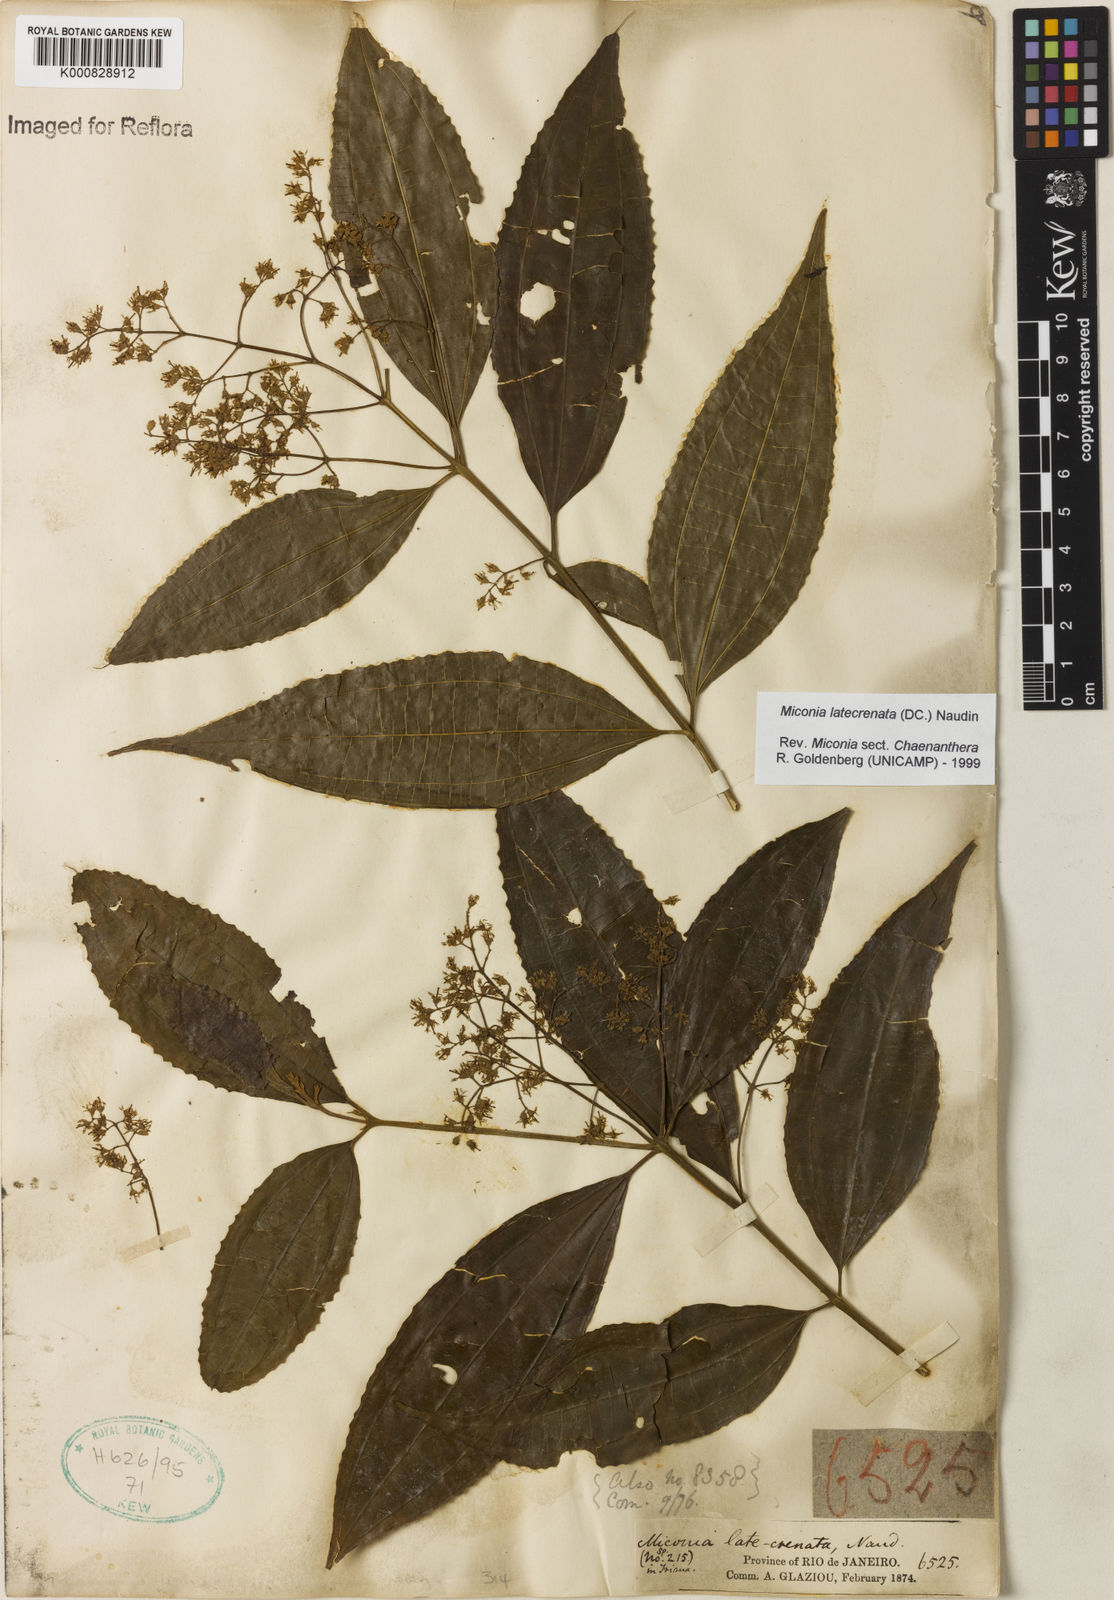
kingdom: Plantae
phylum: Tracheophyta
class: Magnoliopsida
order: Myrtales
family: Melastomataceae
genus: Miconia
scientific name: Miconia latecrenata
